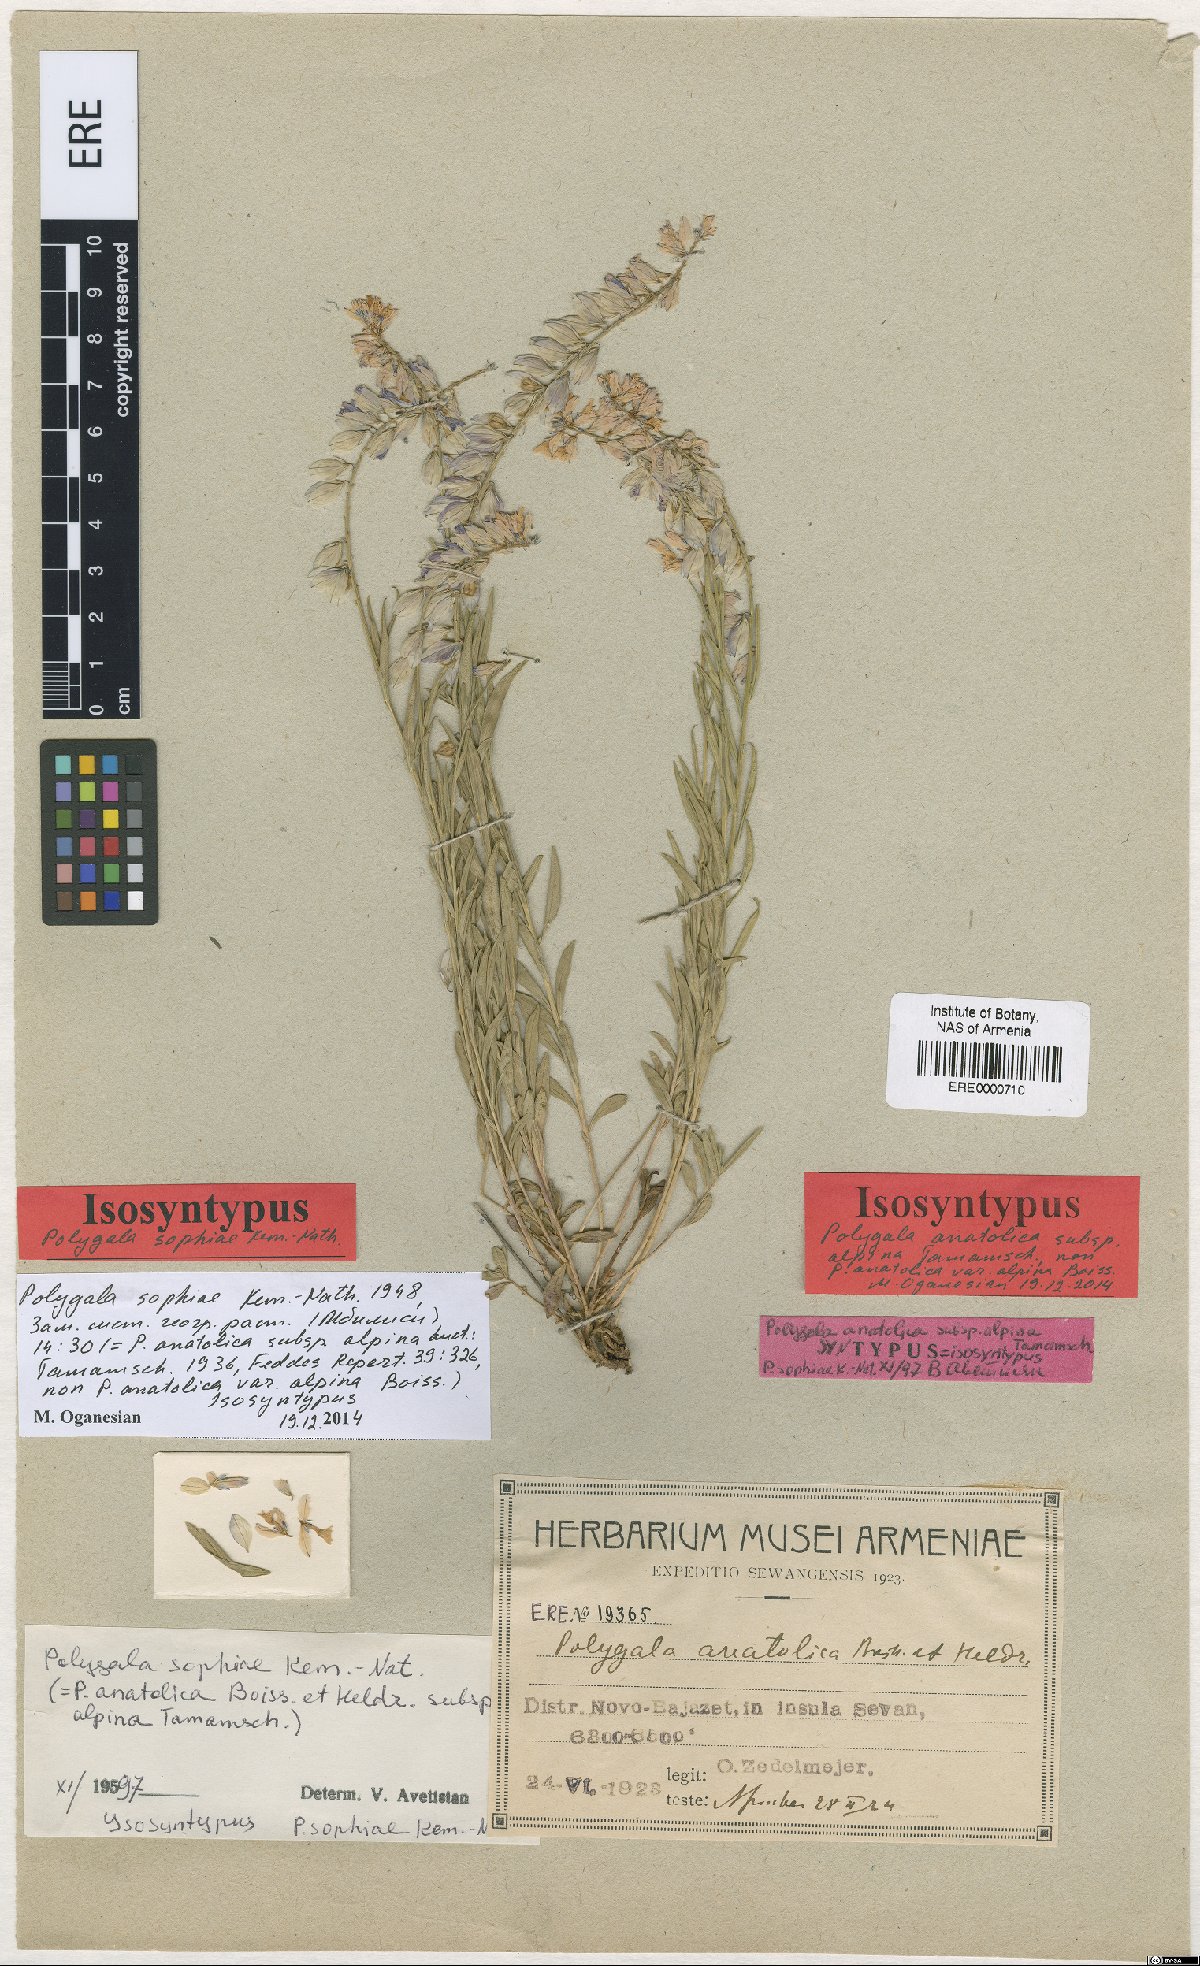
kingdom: Plantae
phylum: Tracheophyta
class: Magnoliopsida
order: Fabales
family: Polygalaceae
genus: Polygala
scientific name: Polygala sophiae
